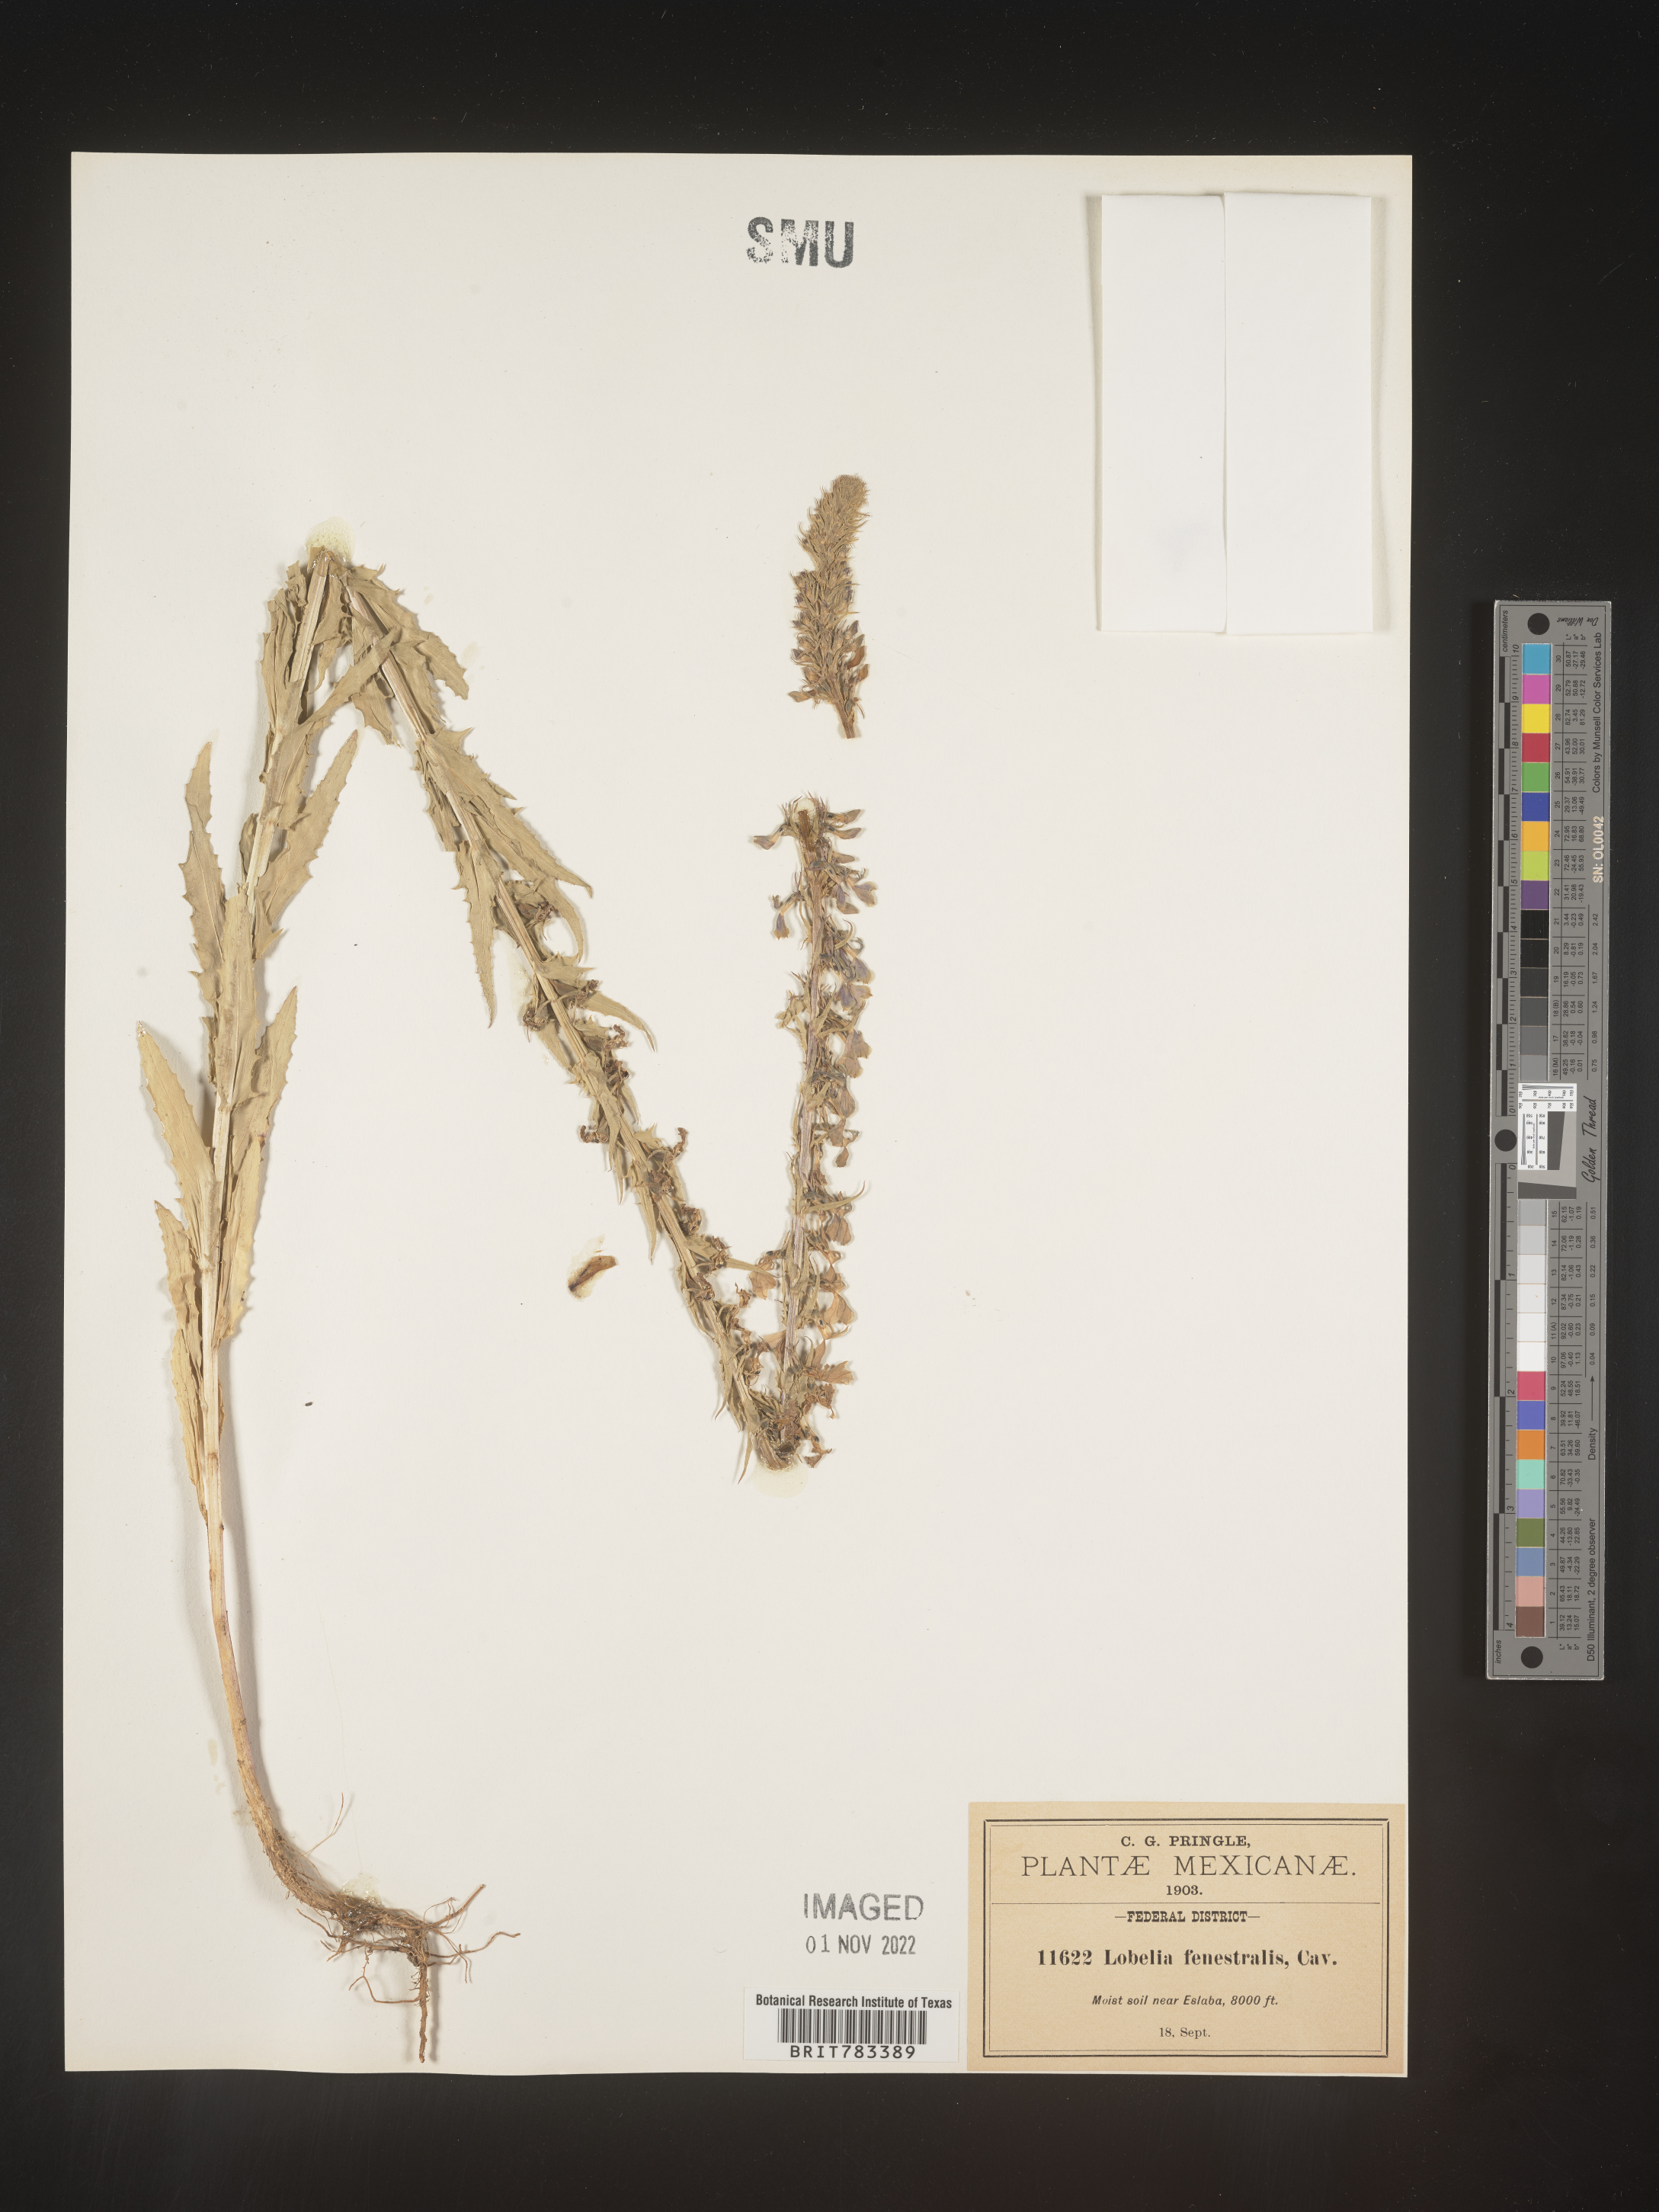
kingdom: Plantae
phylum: Tracheophyta
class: Magnoliopsida
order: Asterales
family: Campanulaceae
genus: Lobelia
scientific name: Lobelia
